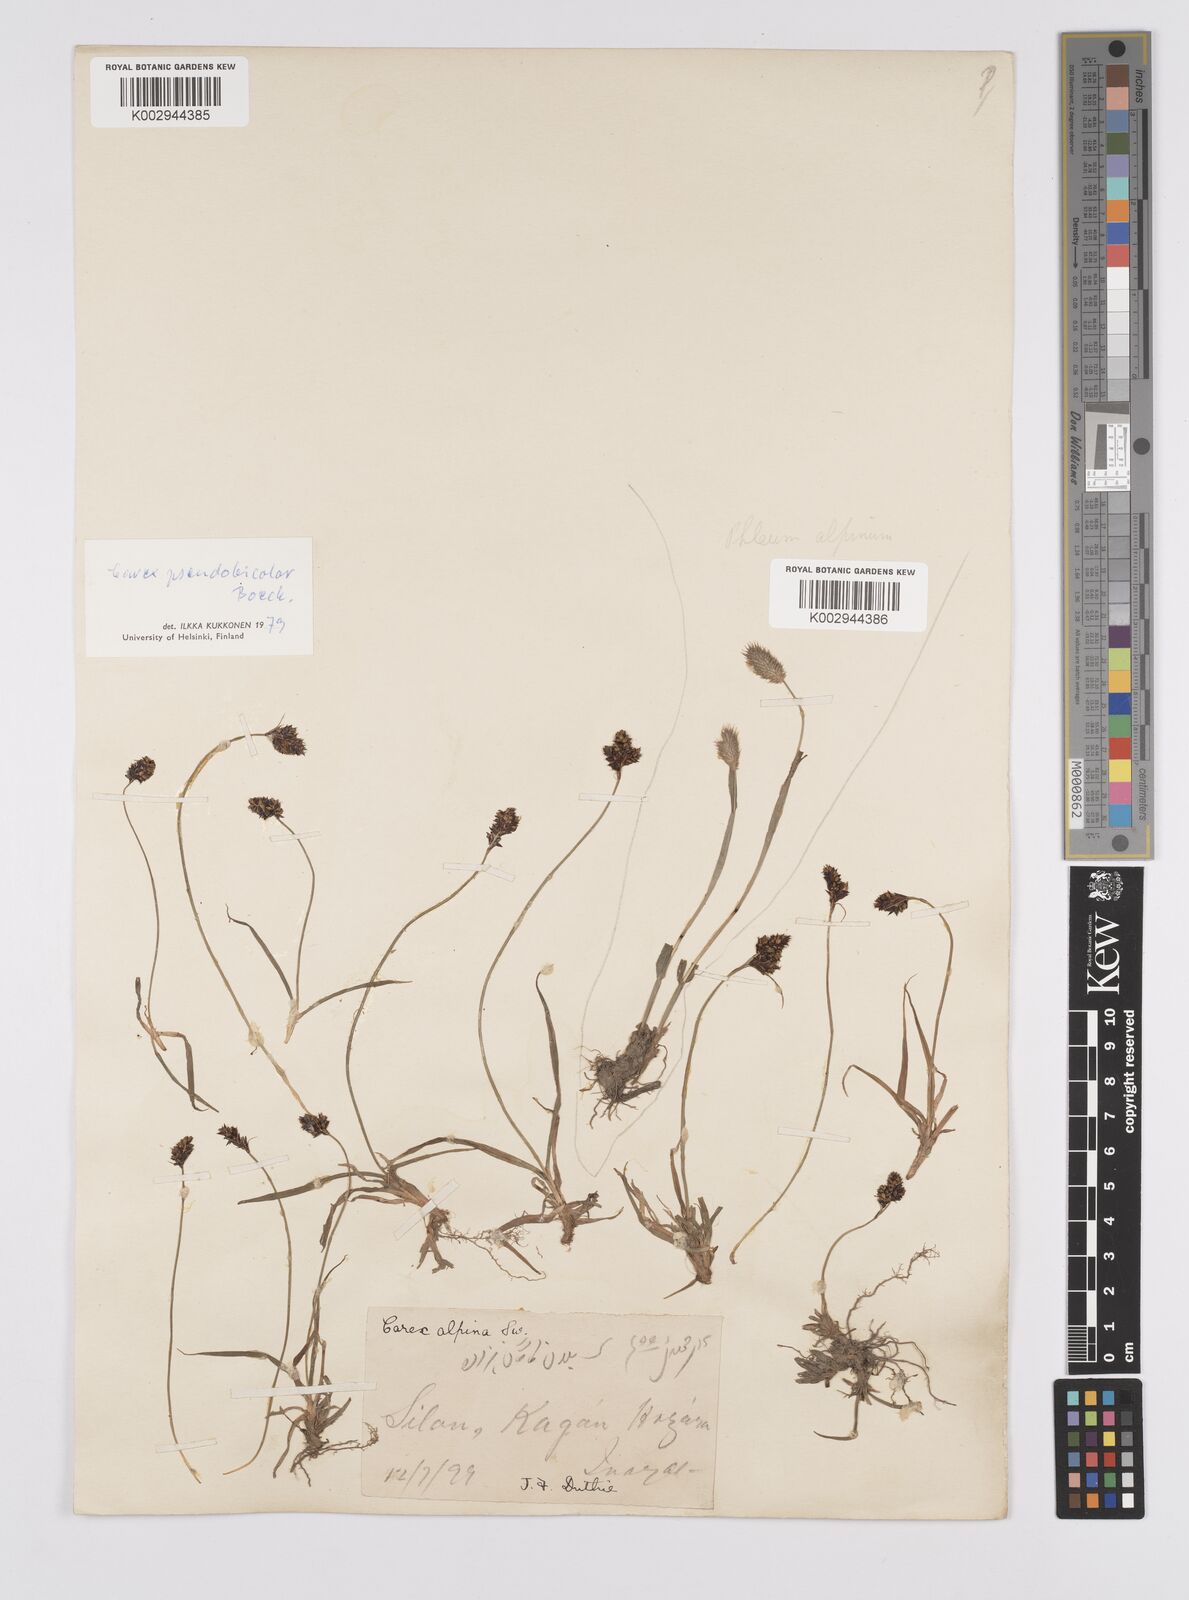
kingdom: Plantae
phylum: Tracheophyta
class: Liliopsida
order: Poales
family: Cyperaceae
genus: Carex
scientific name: Carex norvegica
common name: Close-headed alpine-sedge
